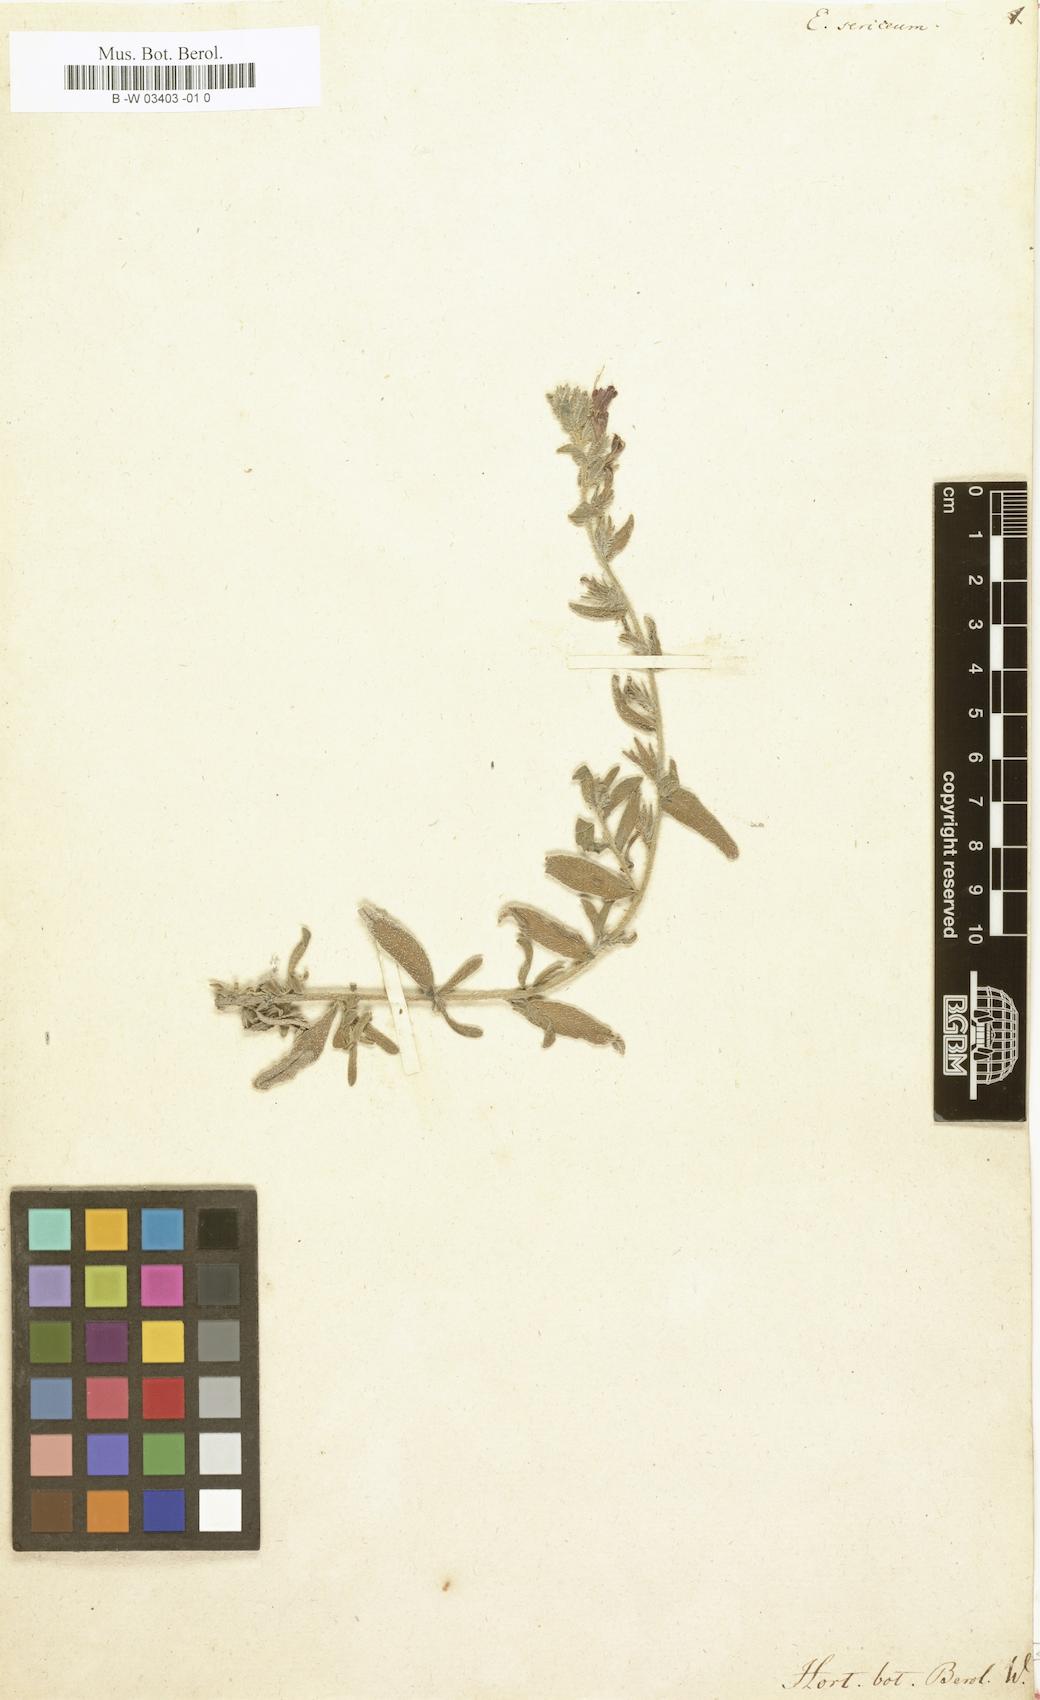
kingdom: Plantae
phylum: Tracheophyta
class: Magnoliopsida
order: Boraginales
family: Boraginaceae
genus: Echium
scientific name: Echium angustifolium
